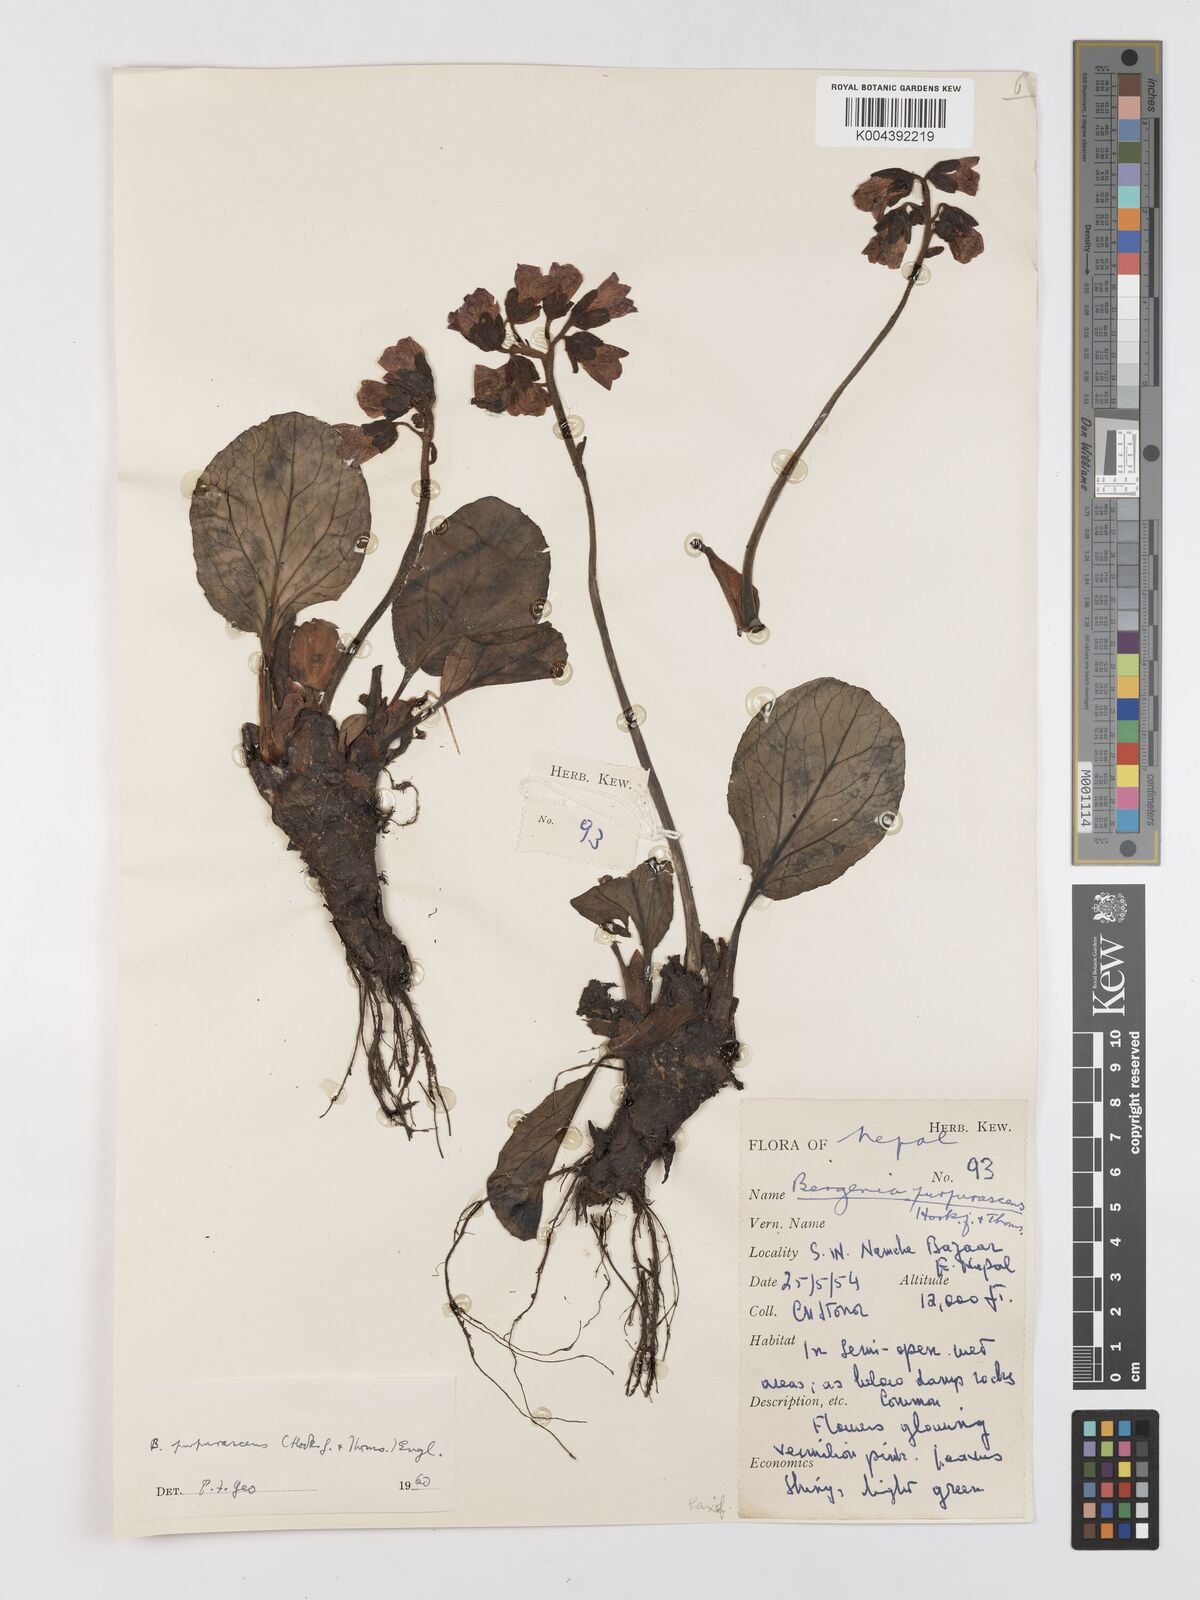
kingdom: Plantae
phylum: Tracheophyta
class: Magnoliopsida
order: Saxifragales
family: Saxifragaceae
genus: Bergenia
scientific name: Bergenia purpurascens
